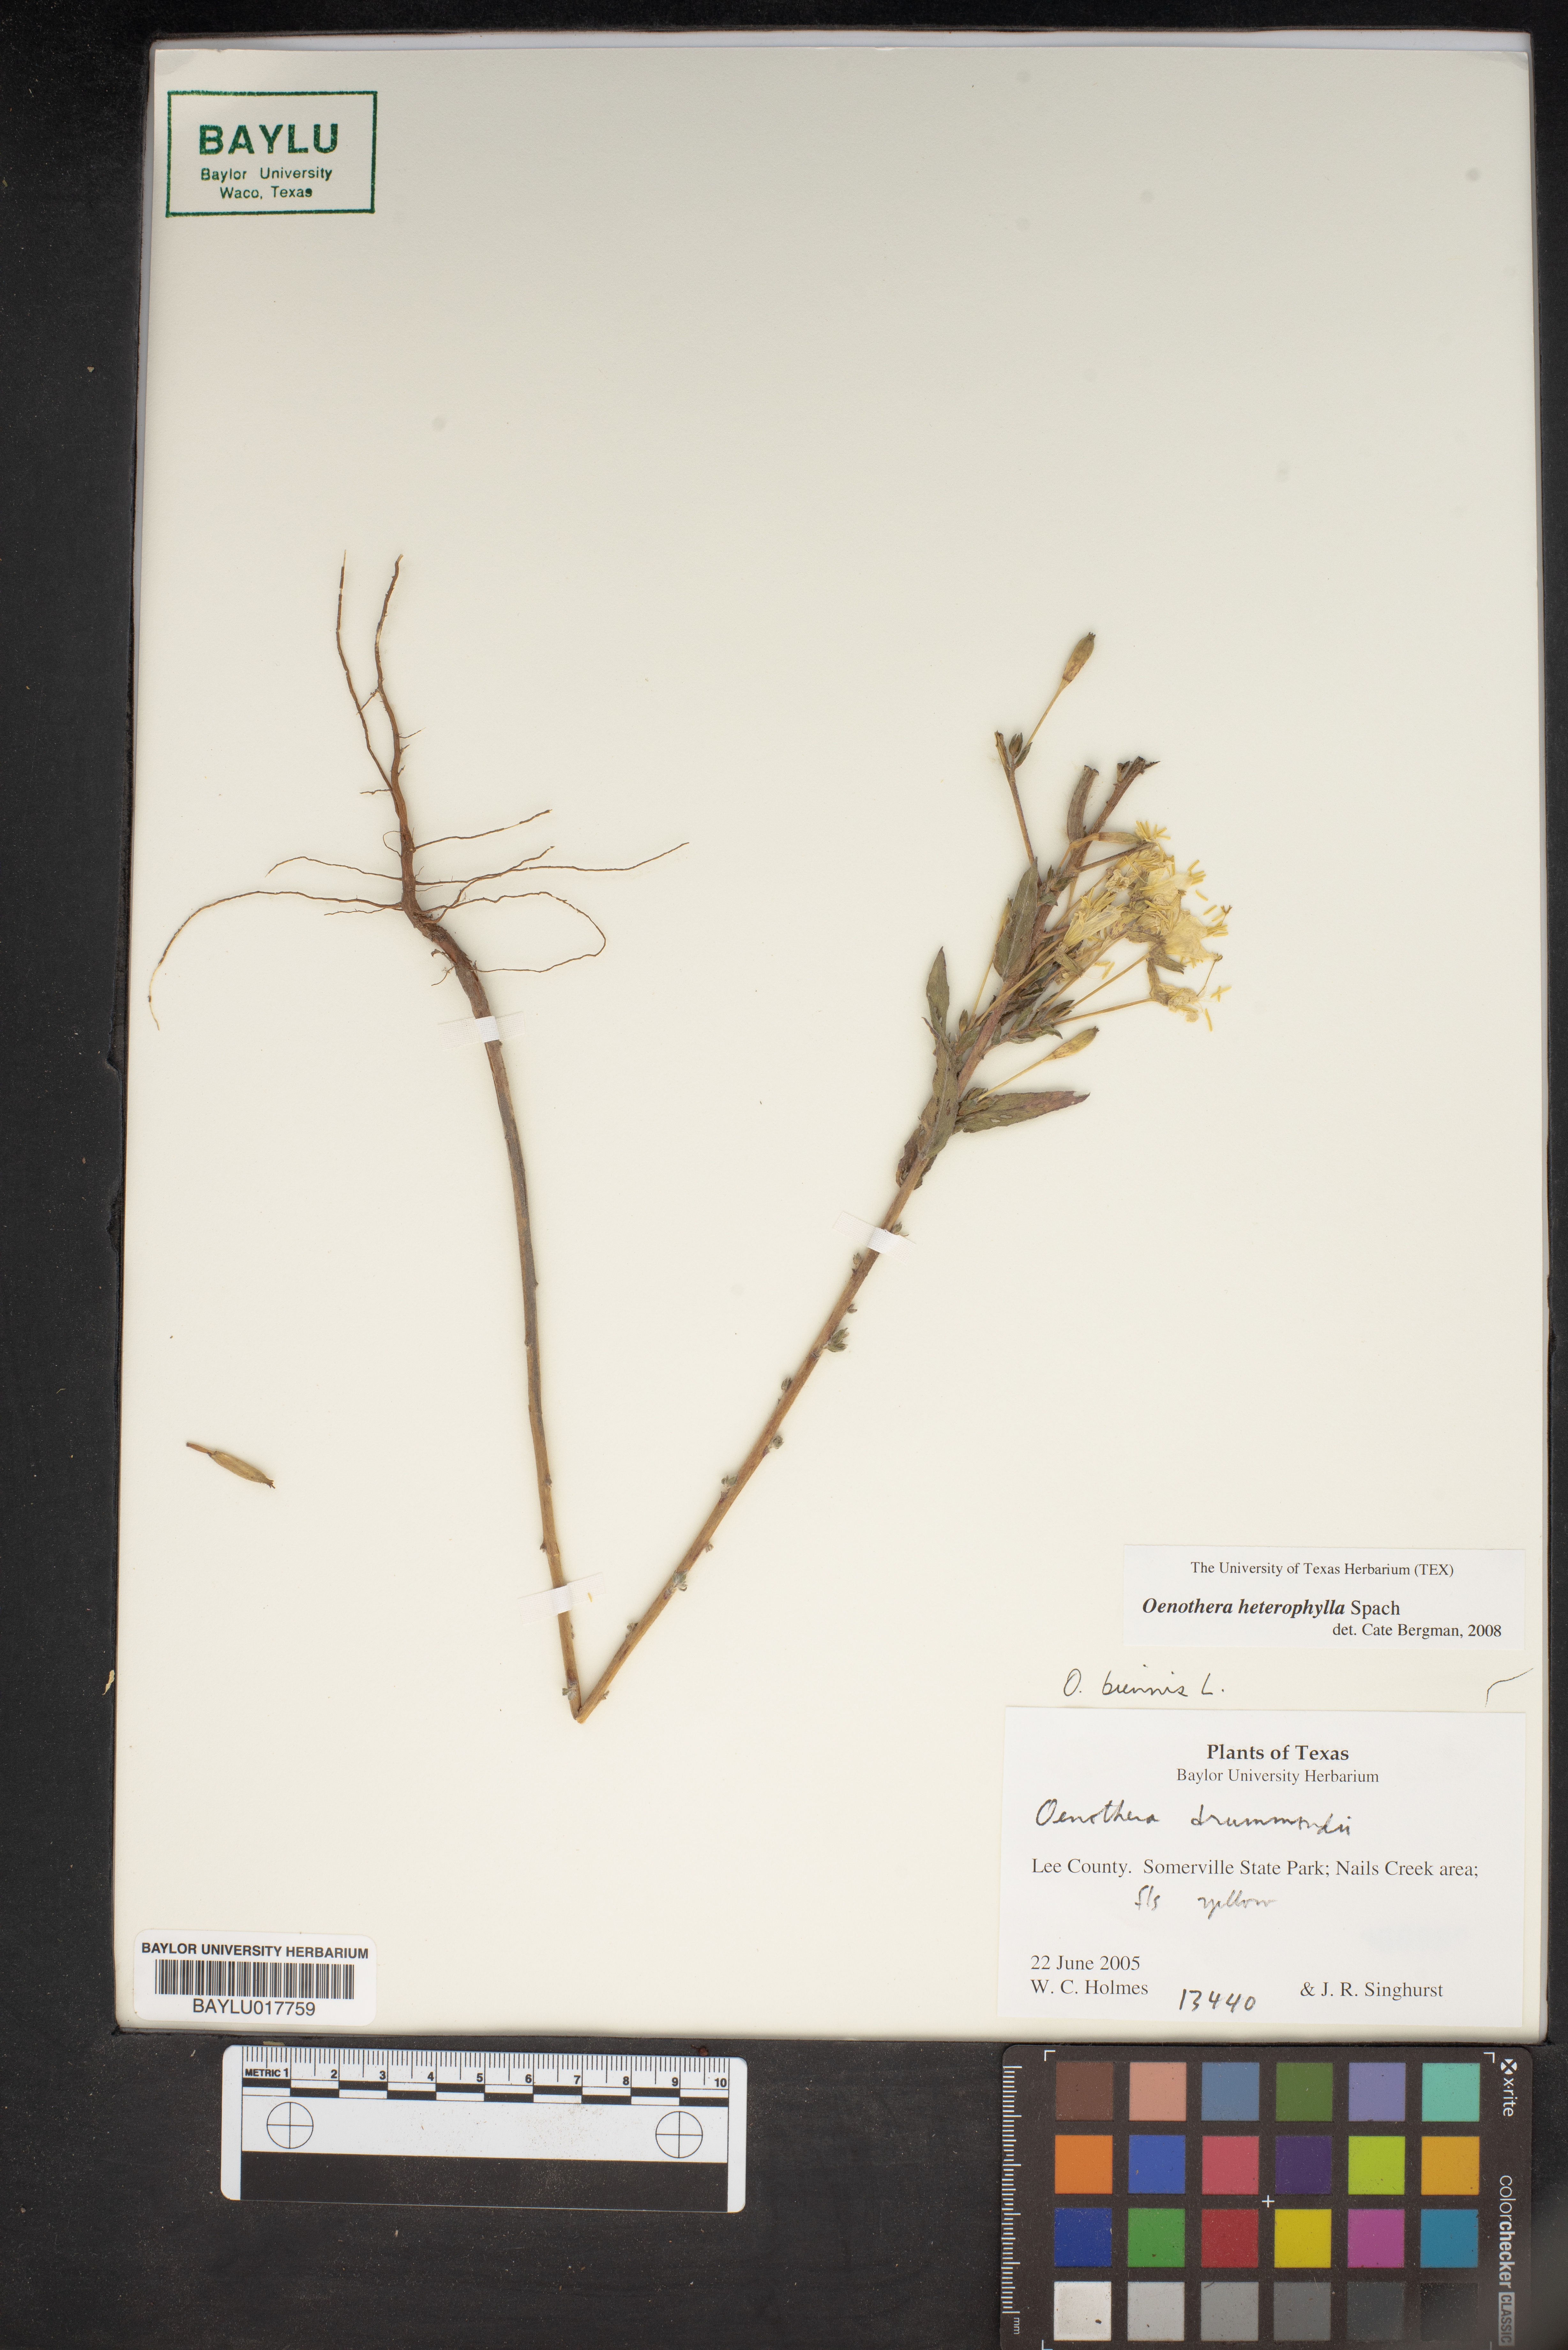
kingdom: Plantae
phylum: Tracheophyta
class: Magnoliopsida
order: Myrtales
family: Onagraceae
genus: Camissonia
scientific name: Camissonia dentata
